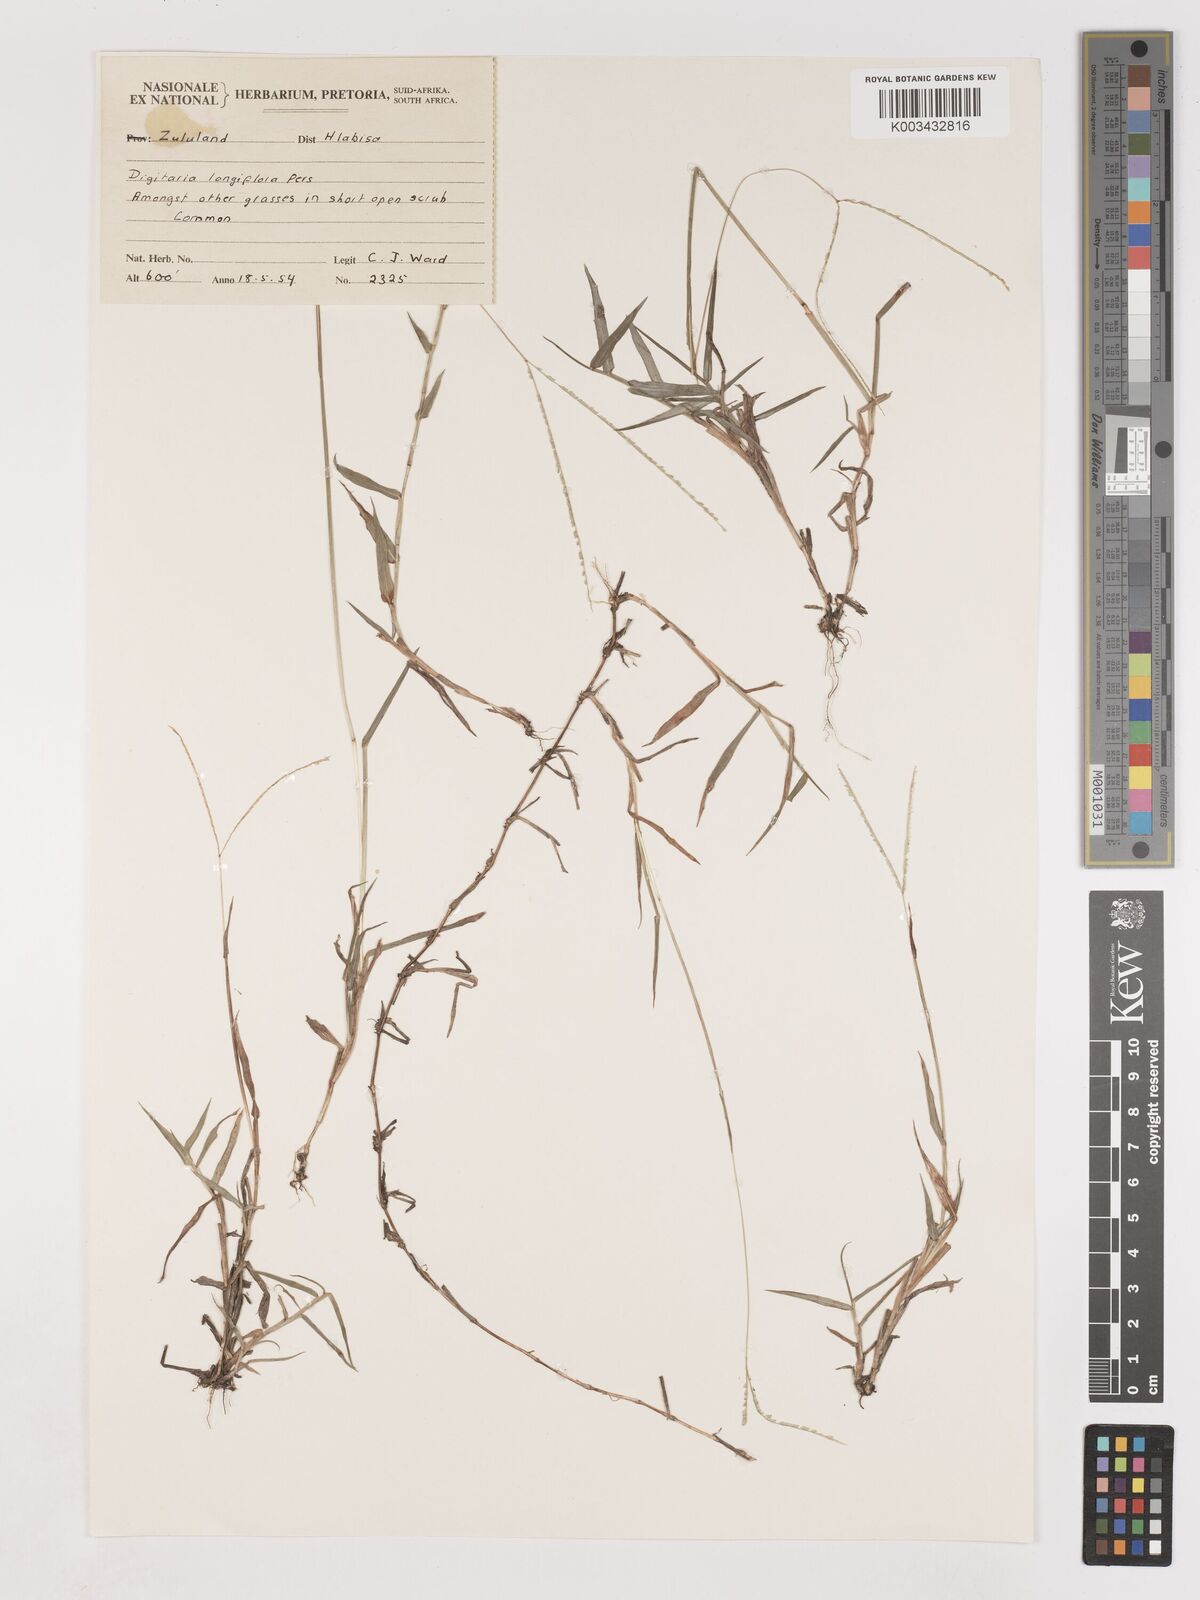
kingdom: Plantae
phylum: Tracheophyta
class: Liliopsida
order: Poales
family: Poaceae
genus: Digitaria
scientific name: Digitaria longiflora
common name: Wire crabgrass
